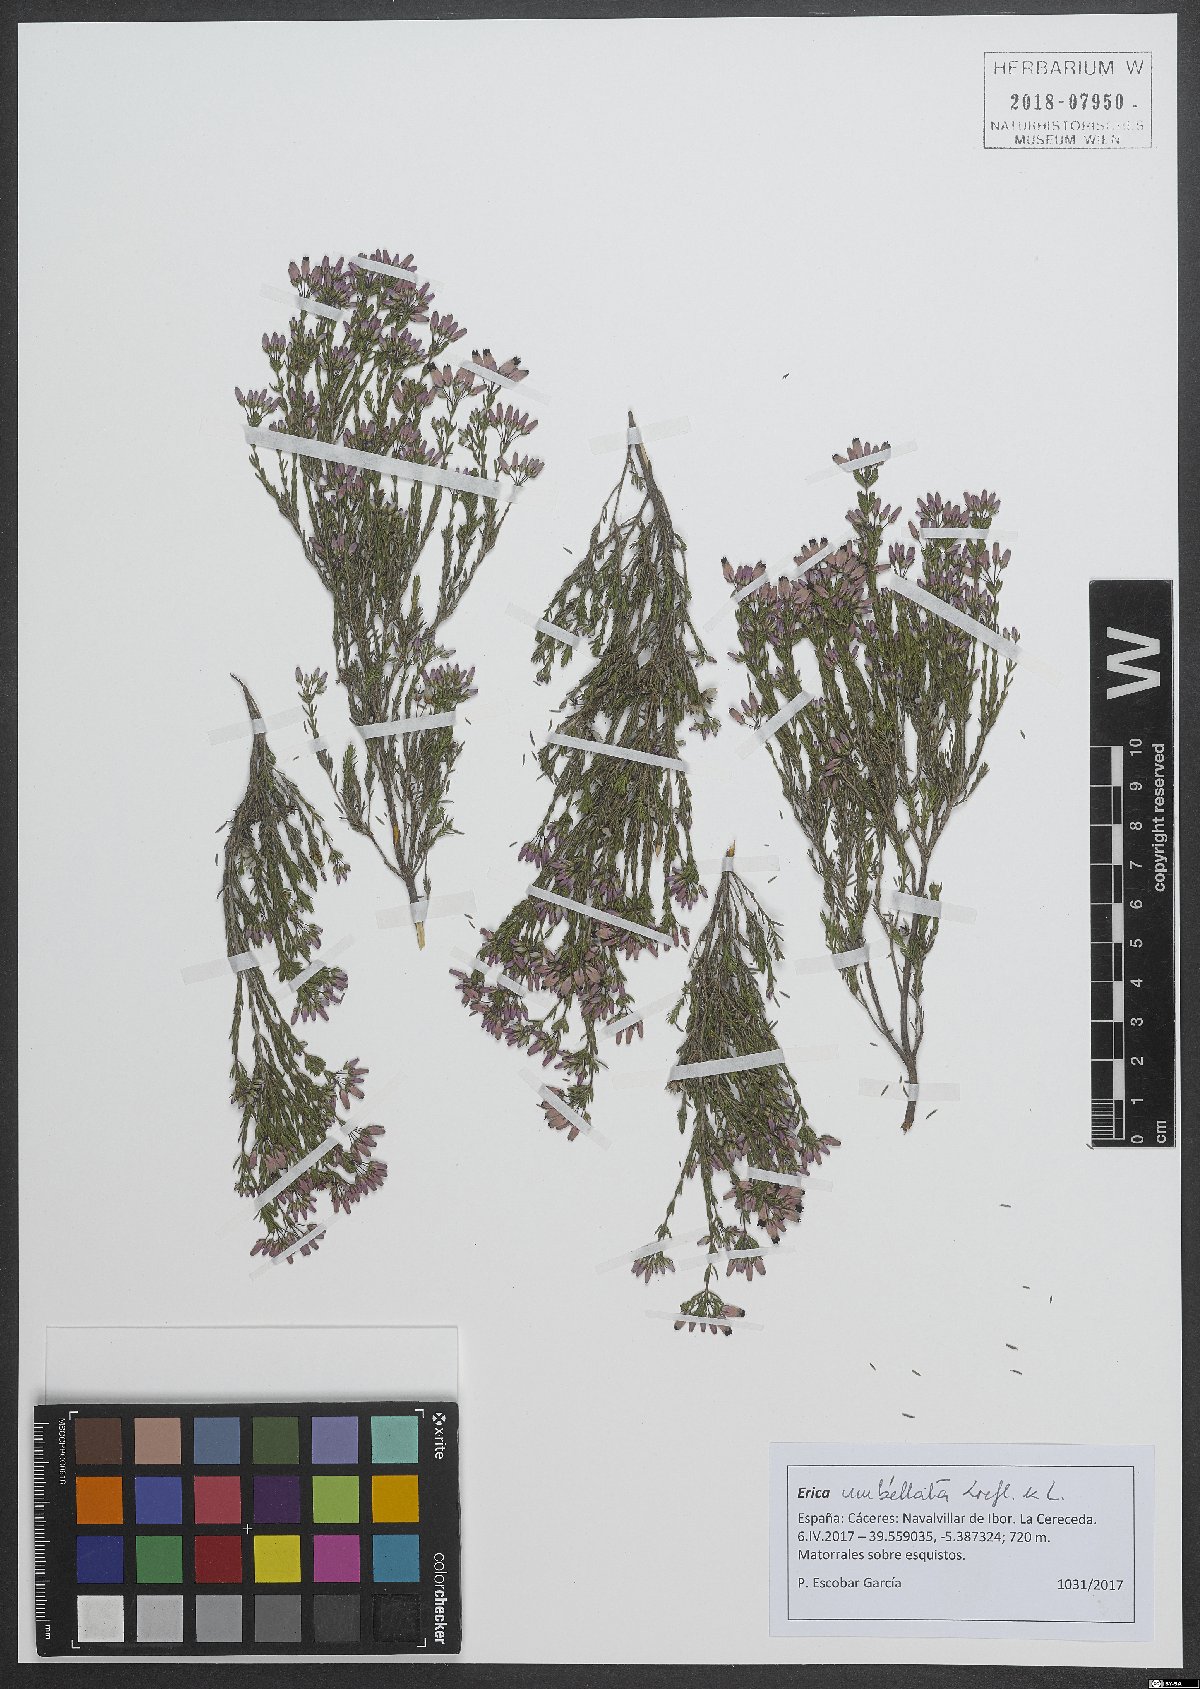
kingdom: Plantae
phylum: Tracheophyta
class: Magnoliopsida
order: Ericales
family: Ericaceae
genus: Erica
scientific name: Erica umbellata
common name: Dwarf spanish heath
